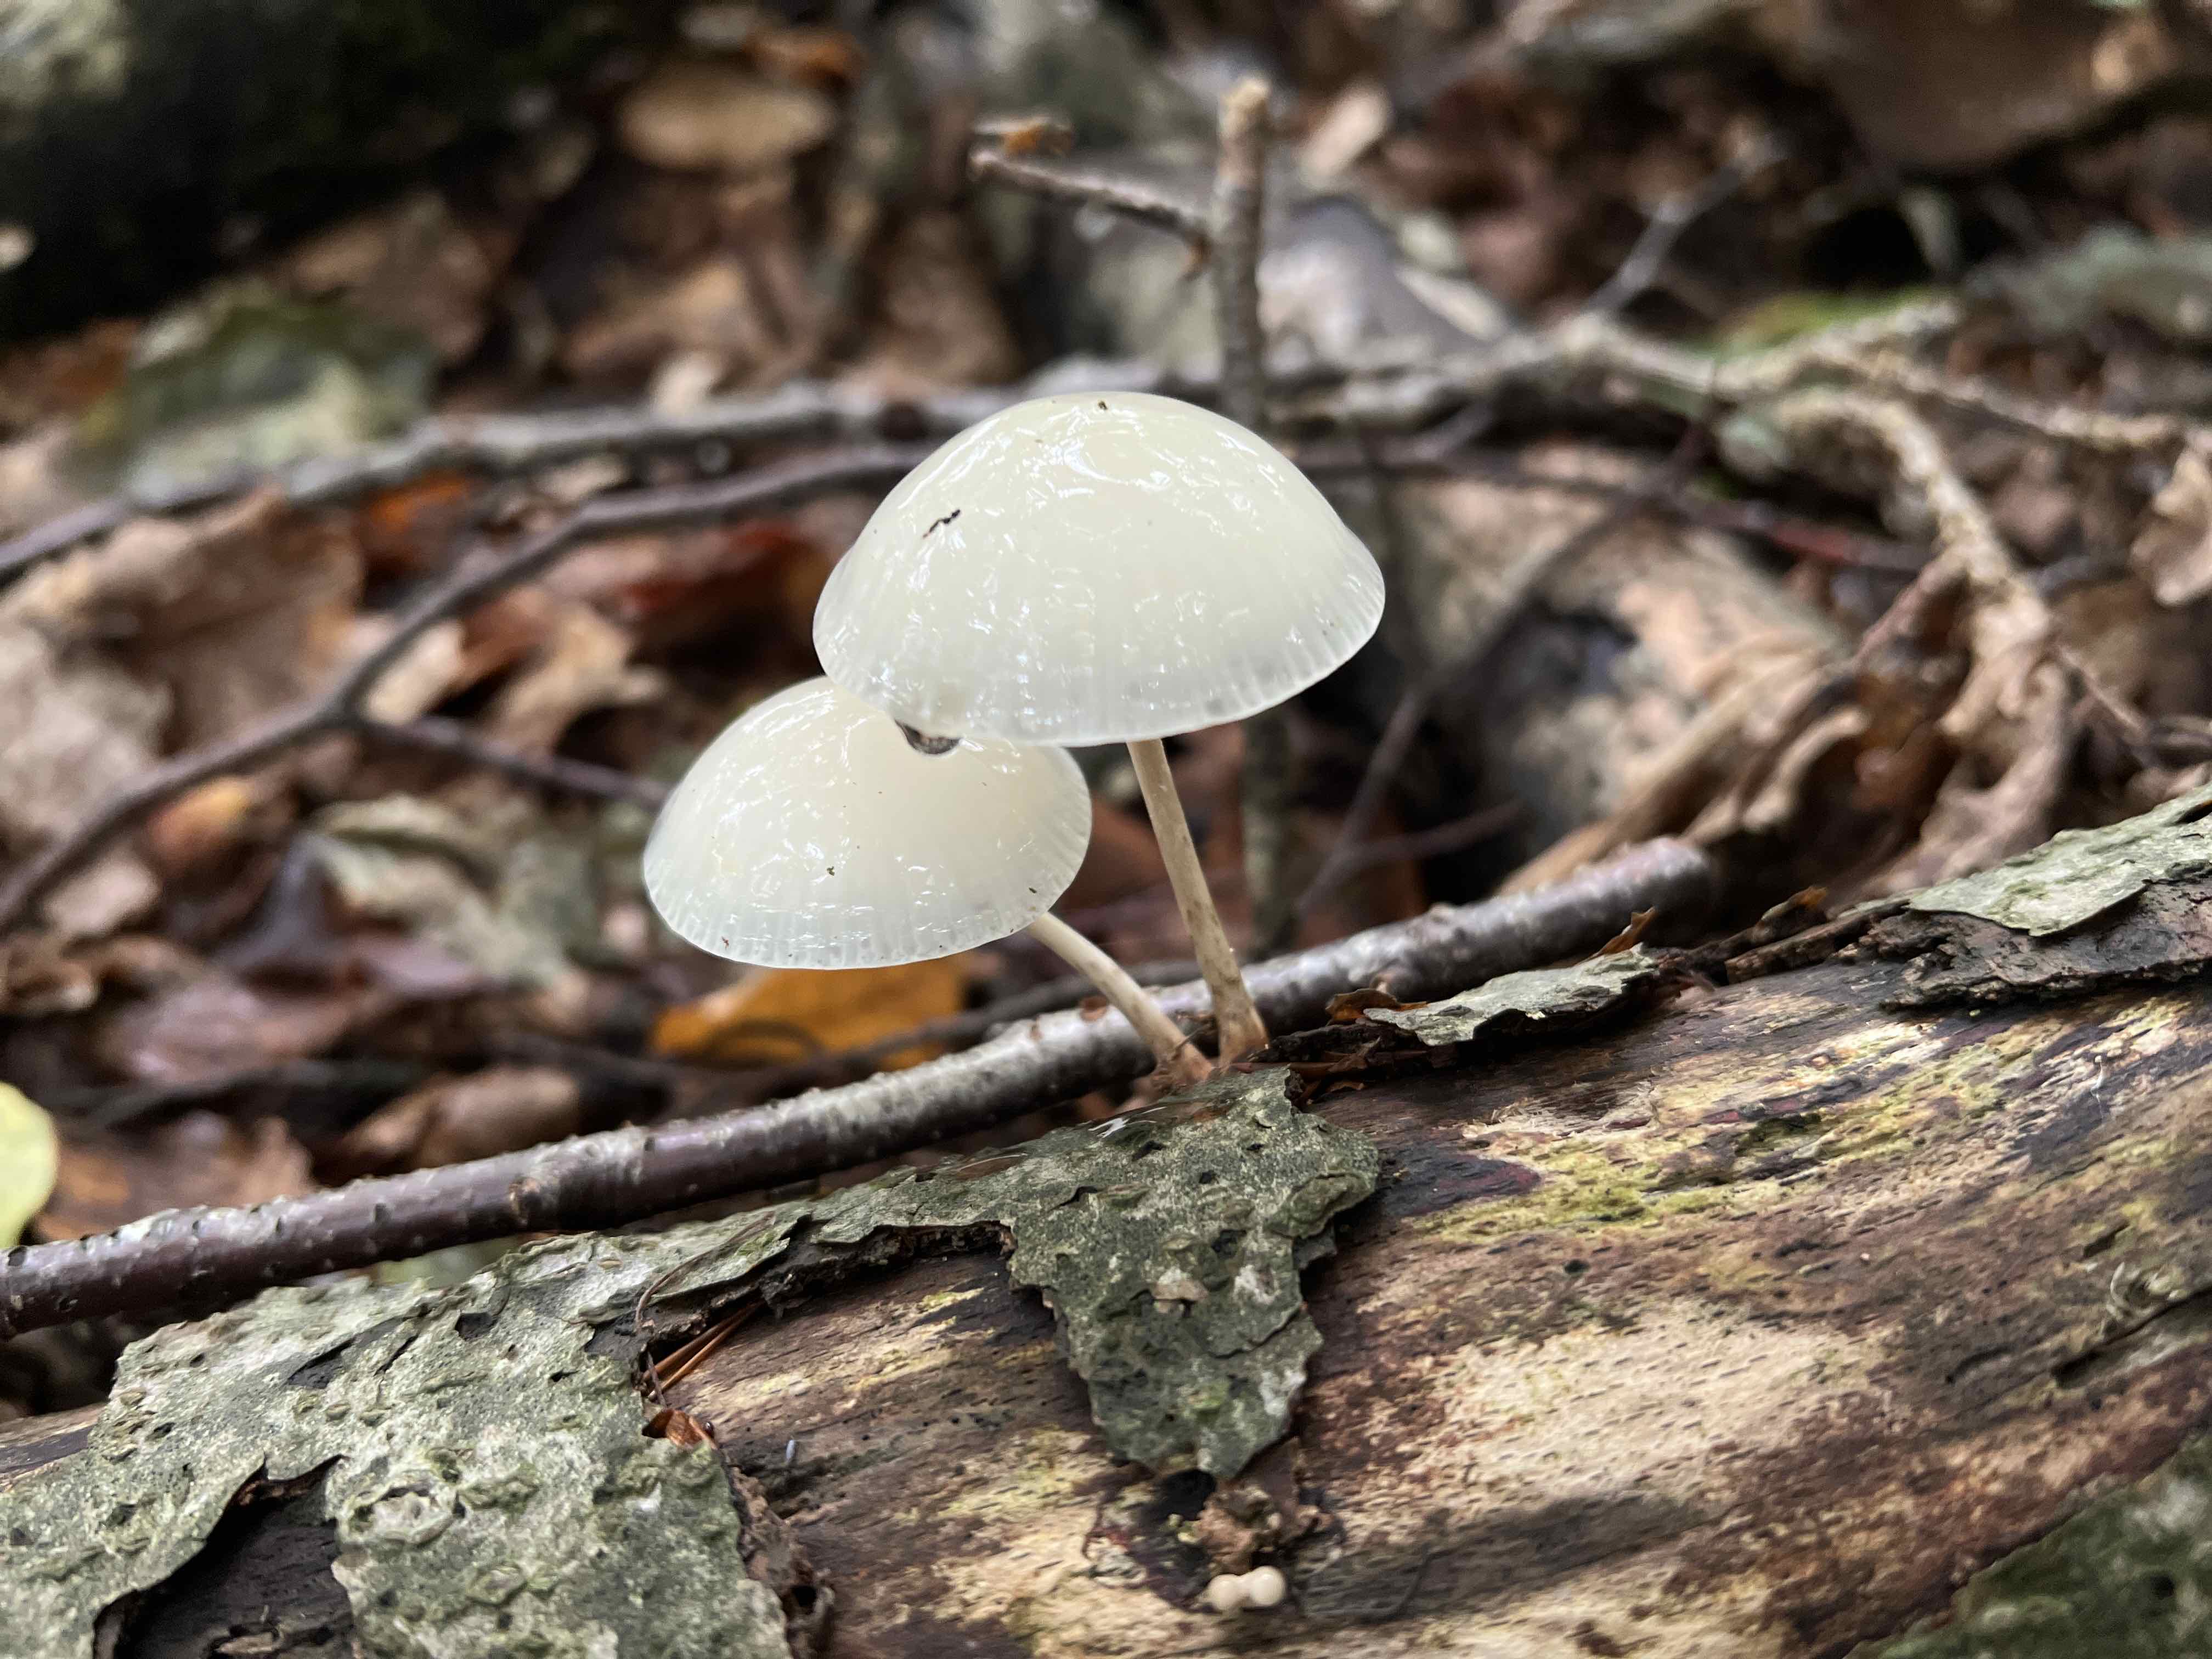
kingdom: Fungi
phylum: Basidiomycota
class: Agaricomycetes
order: Agaricales
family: Physalacriaceae
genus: Mucidula
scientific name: Mucidula mucida
